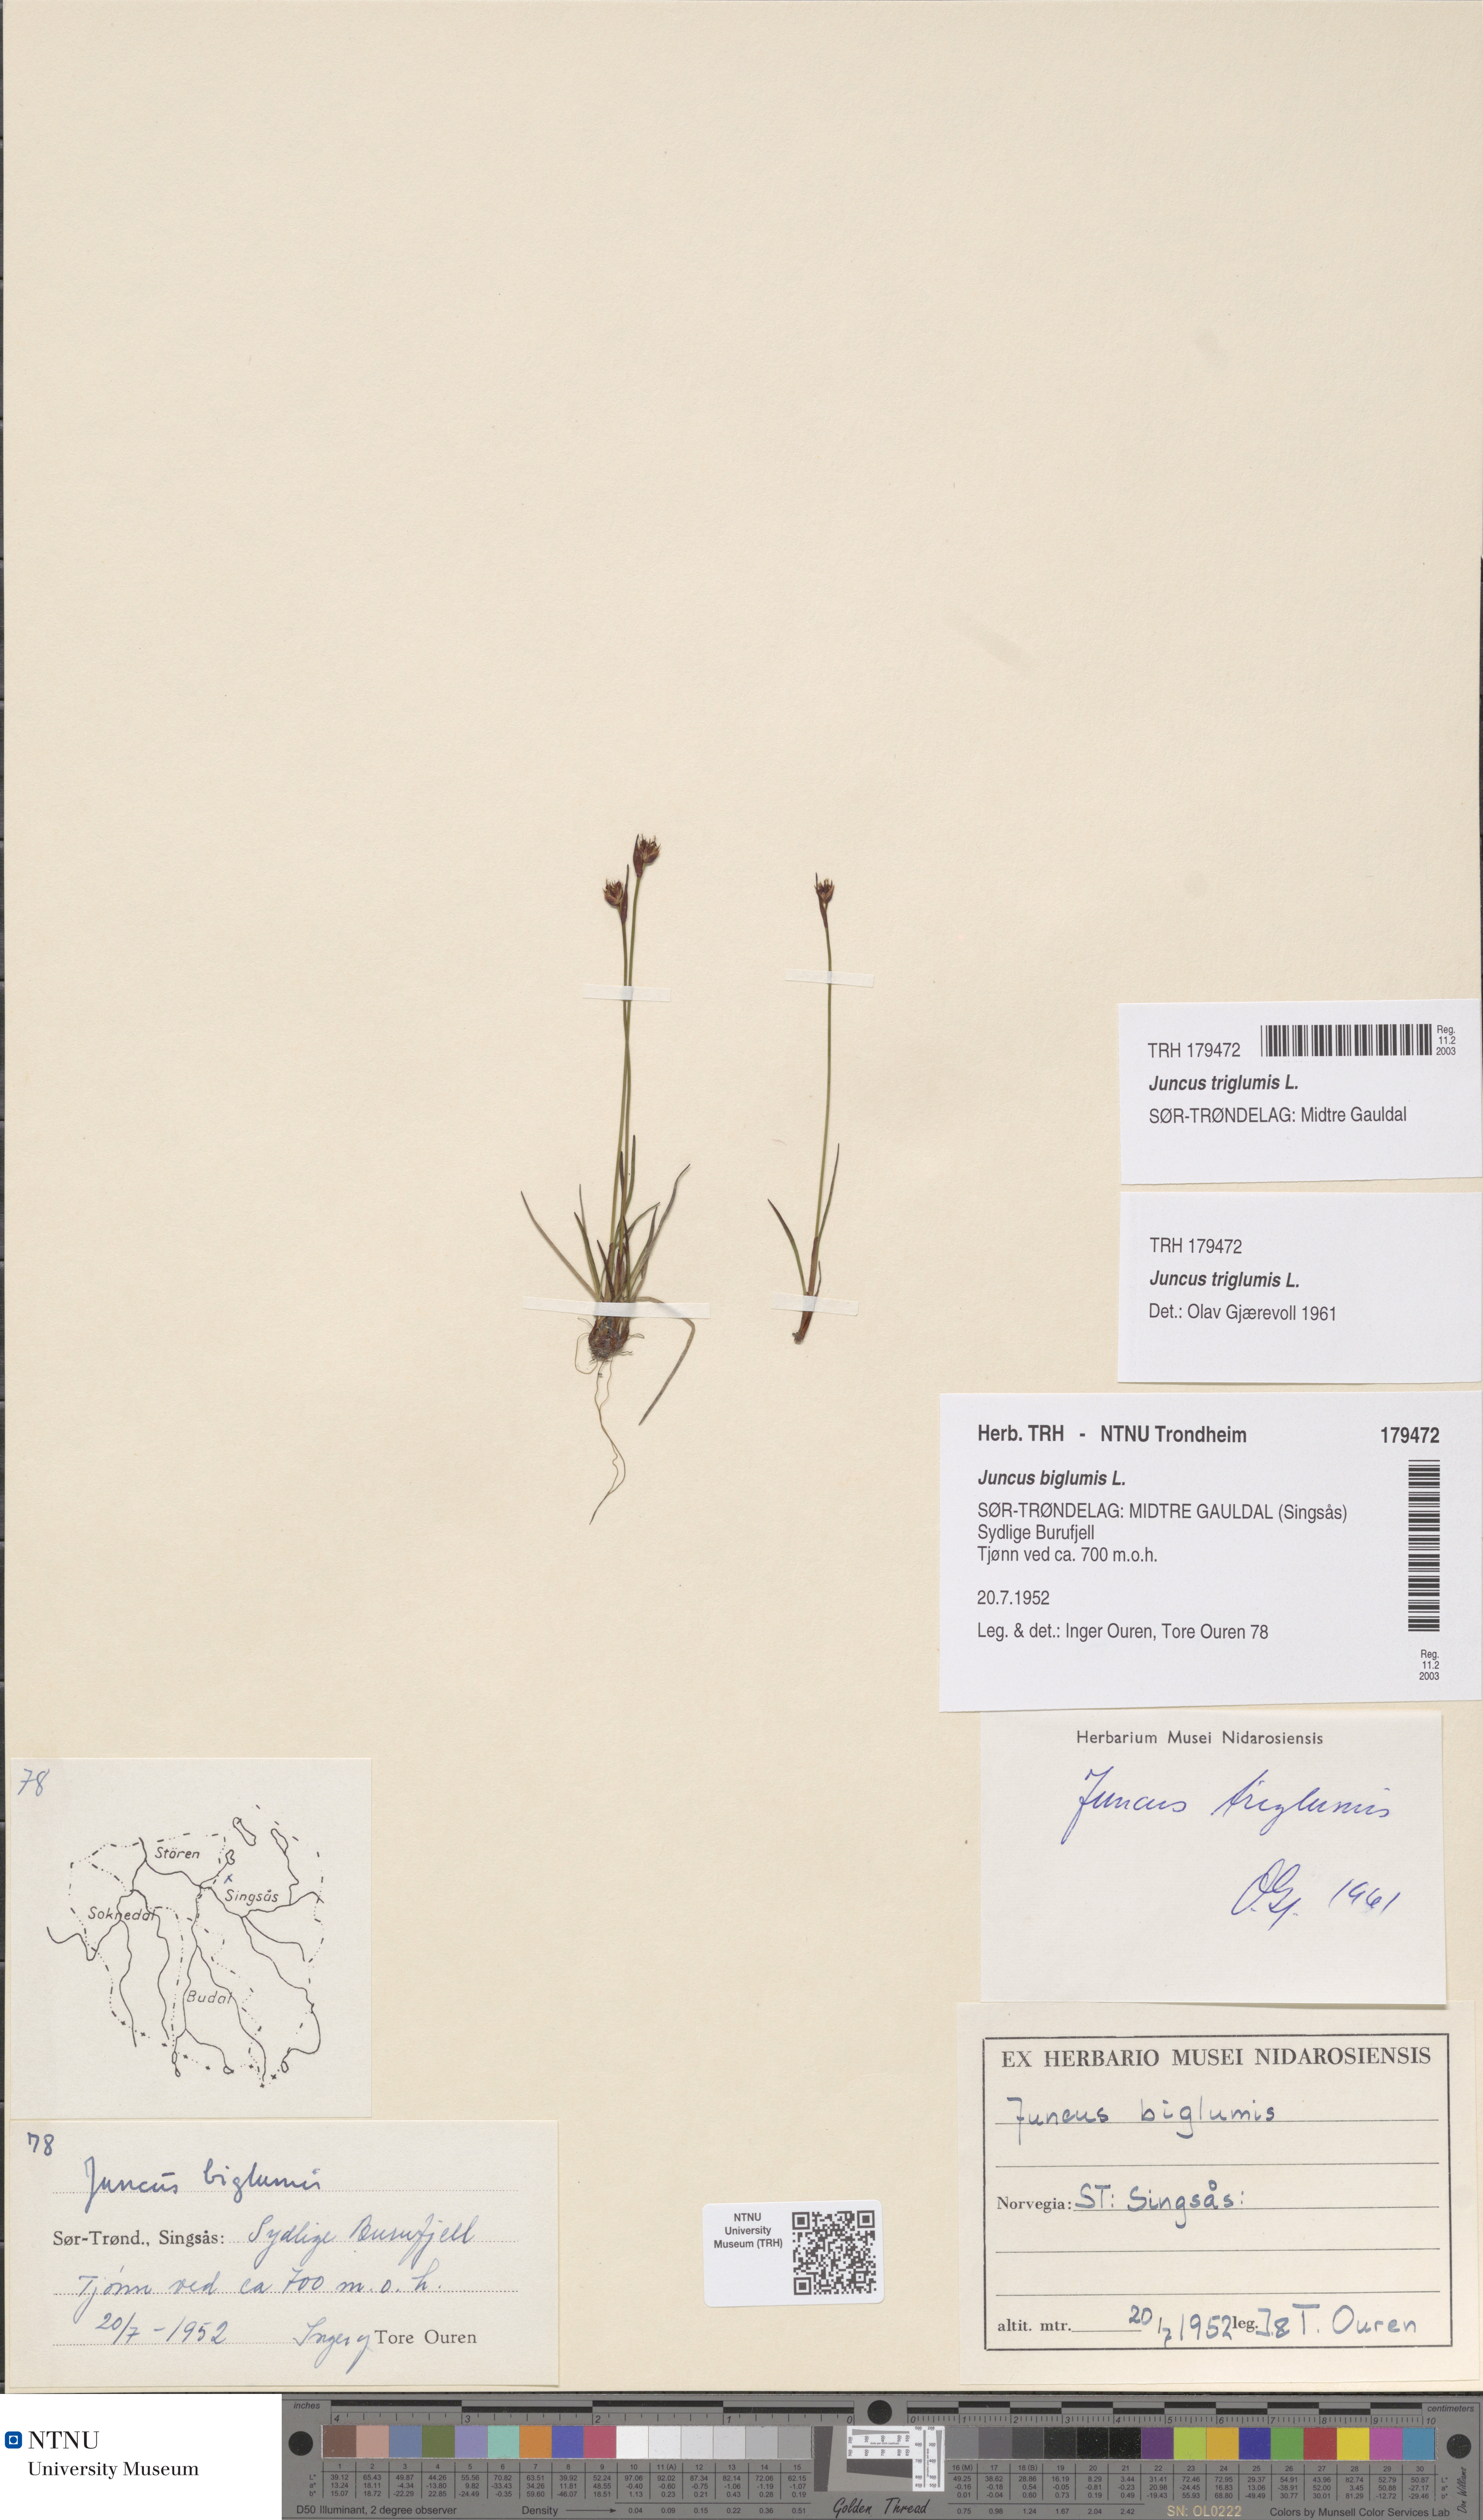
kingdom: Plantae
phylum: Tracheophyta
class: Liliopsida
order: Poales
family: Juncaceae
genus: Juncus
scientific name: Juncus triglumis
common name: Three-flowered rush
